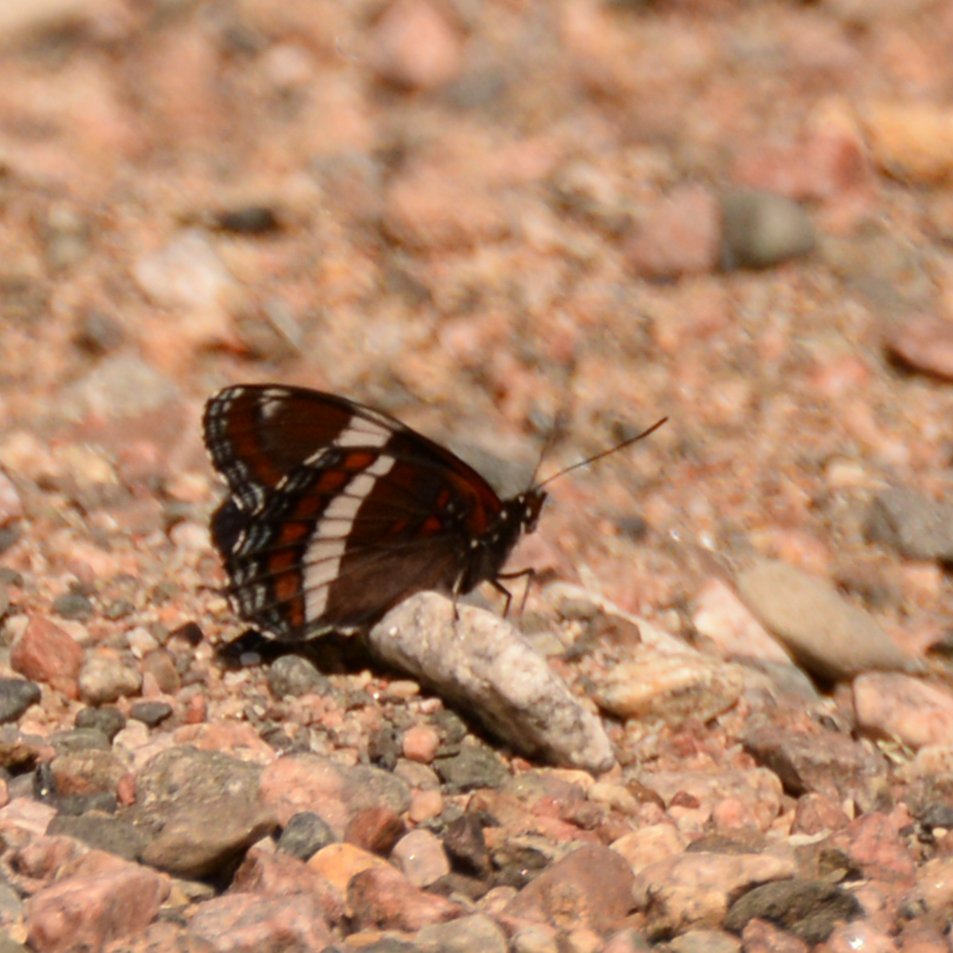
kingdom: Animalia
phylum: Arthropoda
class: Insecta
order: Lepidoptera
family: Nymphalidae
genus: Limenitis
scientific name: Limenitis arthemis
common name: Red-spotted Admiral
